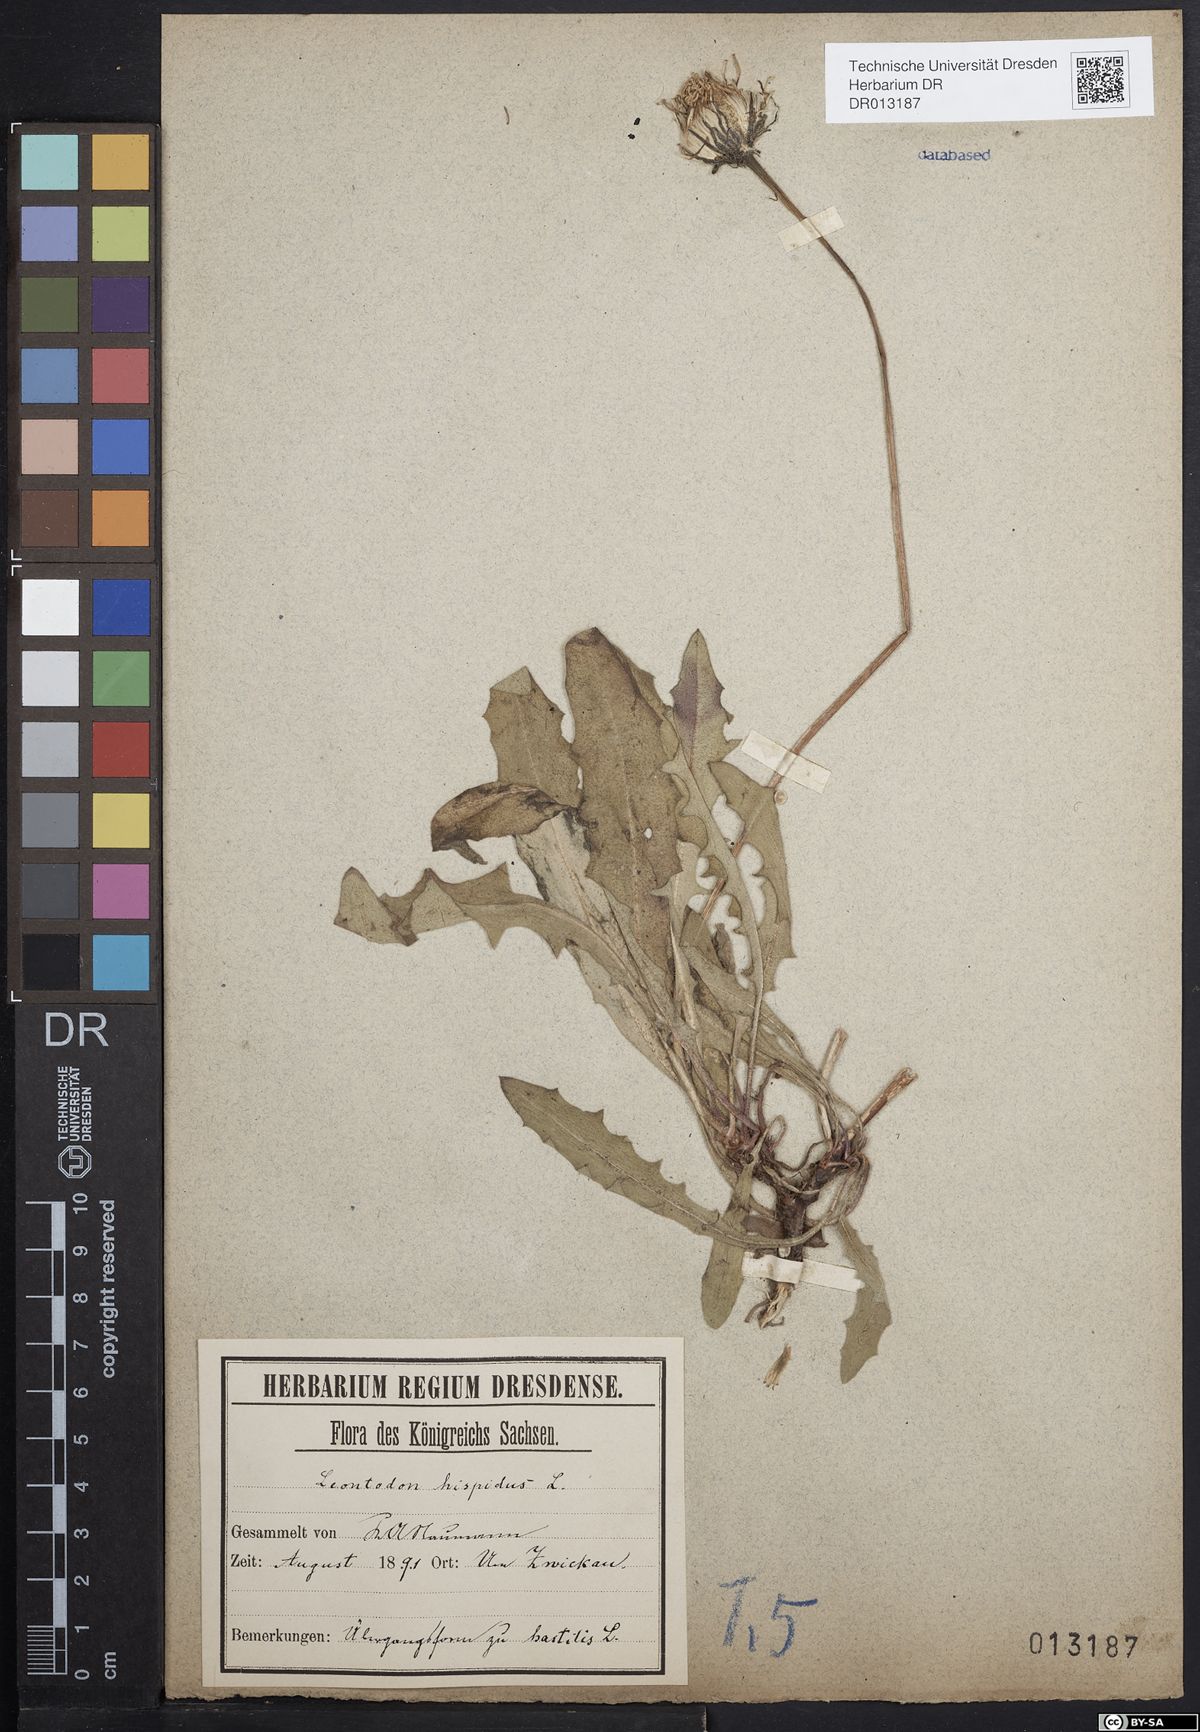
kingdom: Plantae
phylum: Tracheophyta
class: Magnoliopsida
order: Asterales
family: Asteraceae
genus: Leontodon
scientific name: Leontodon hispidus
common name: Rough hawkbit
